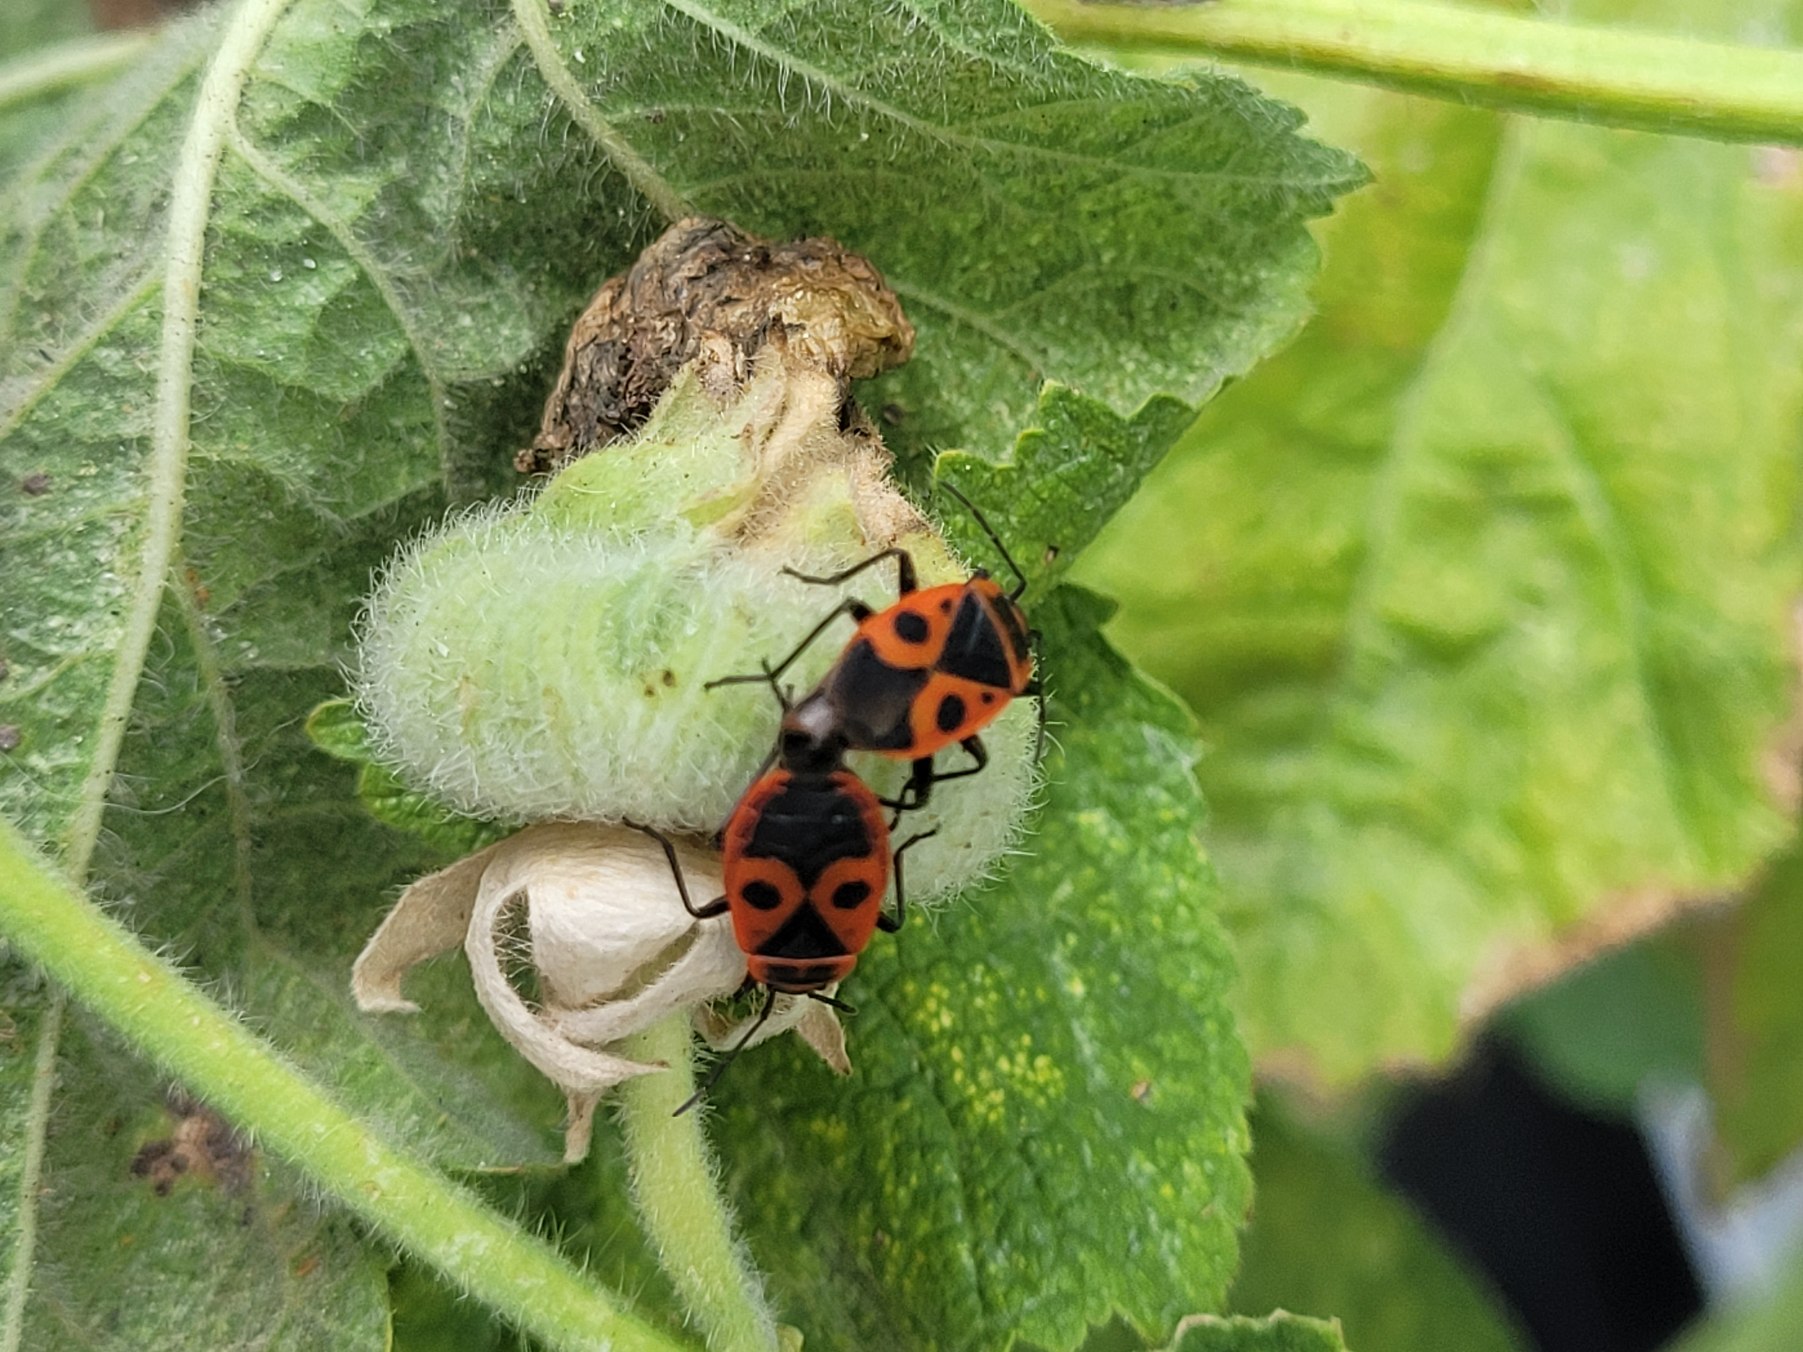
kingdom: Animalia
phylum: Arthropoda
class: Insecta
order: Hemiptera
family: Pyrrhocoridae
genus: Pyrrhocoris
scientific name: Pyrrhocoris apterus
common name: Ildtæge
